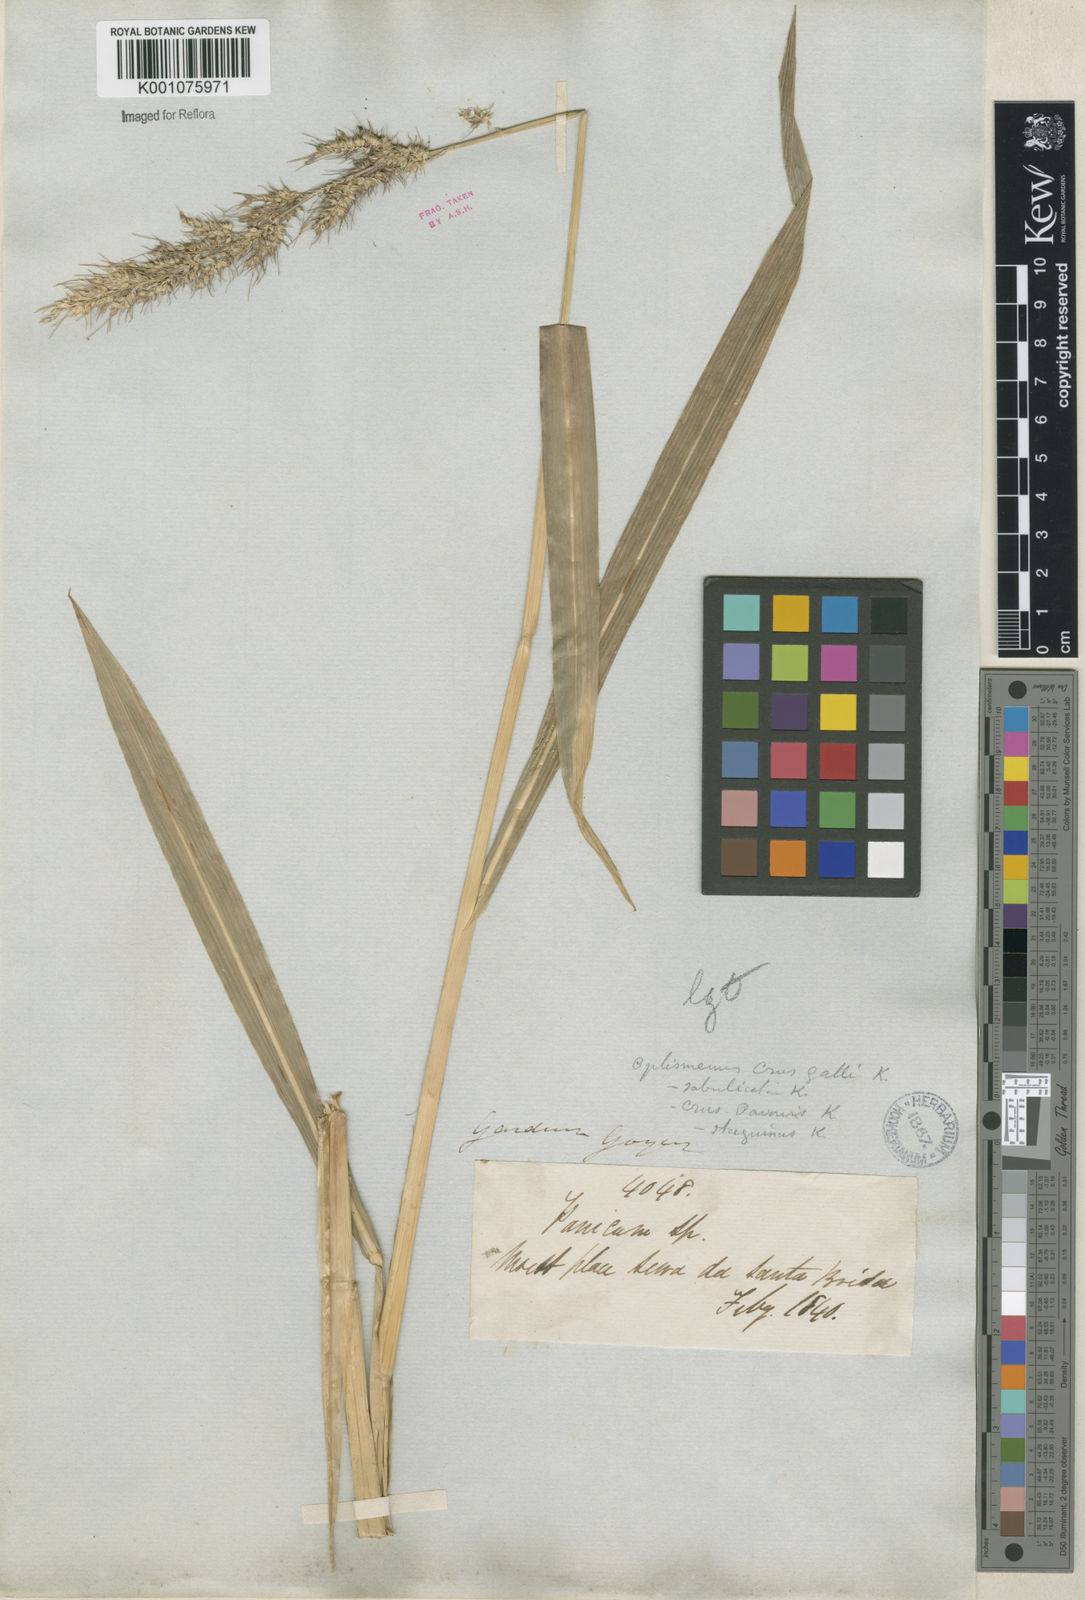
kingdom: Plantae
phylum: Tracheophyta
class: Liliopsida
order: Poales
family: Poaceae
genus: Echinochloa
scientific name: Echinochloa crus-pavonis
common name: Gulf cockspur grass
